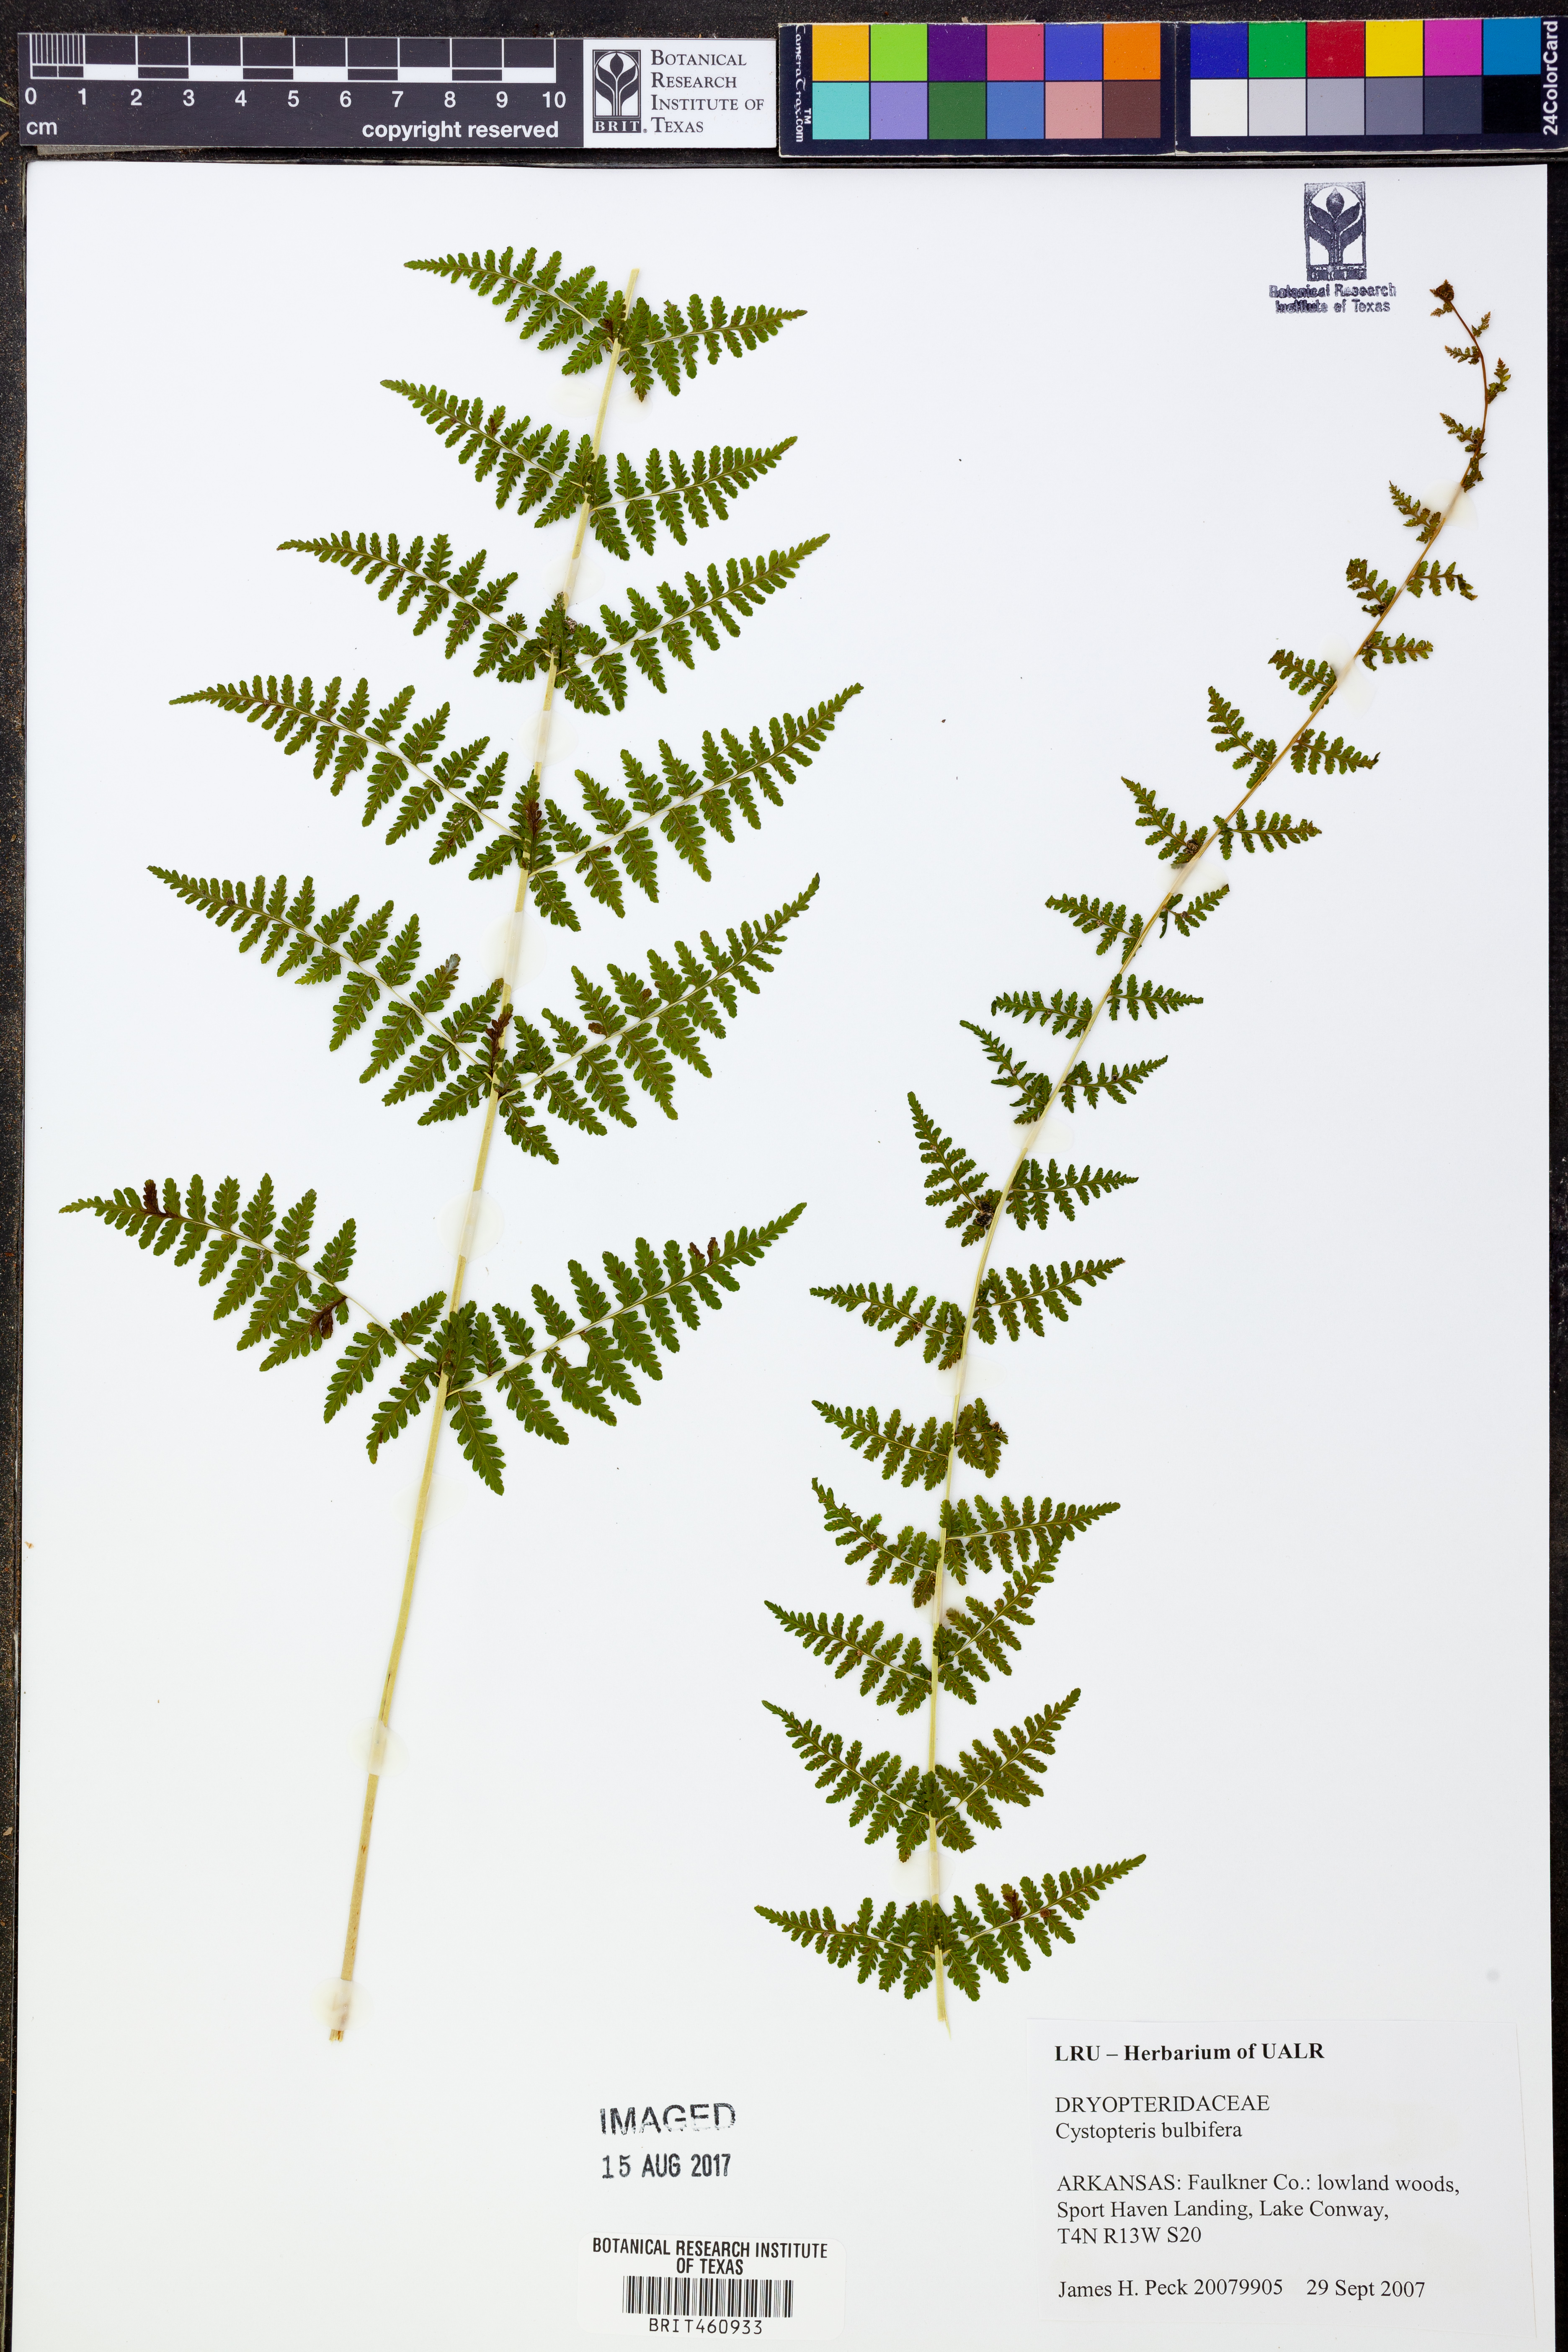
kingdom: Plantae
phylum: Tracheophyta
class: Polypodiopsida
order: Polypodiales
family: Cystopteridaceae
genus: Cystopteris
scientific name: Cystopteris bulbifera
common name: Bulblet bladder fern
